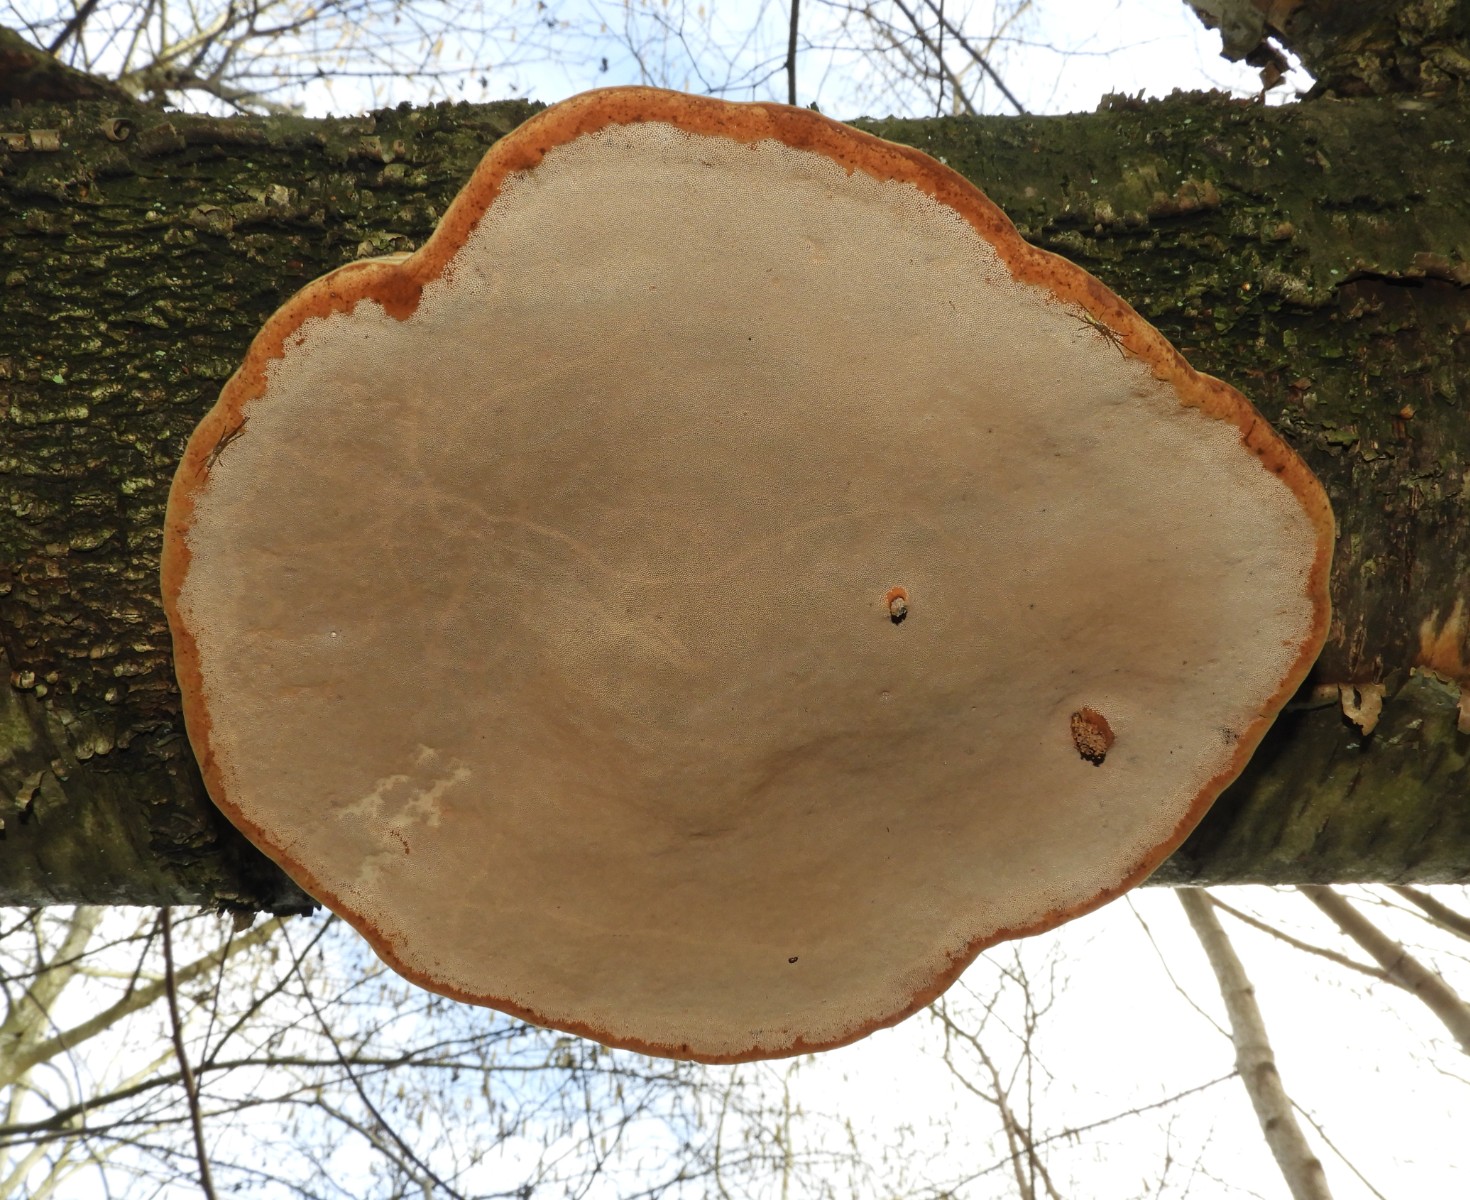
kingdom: Fungi
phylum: Basidiomycota
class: Agaricomycetes
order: Polyporales
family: Polyporaceae
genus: Fomes
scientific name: Fomes fomentarius
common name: tøndersvamp
